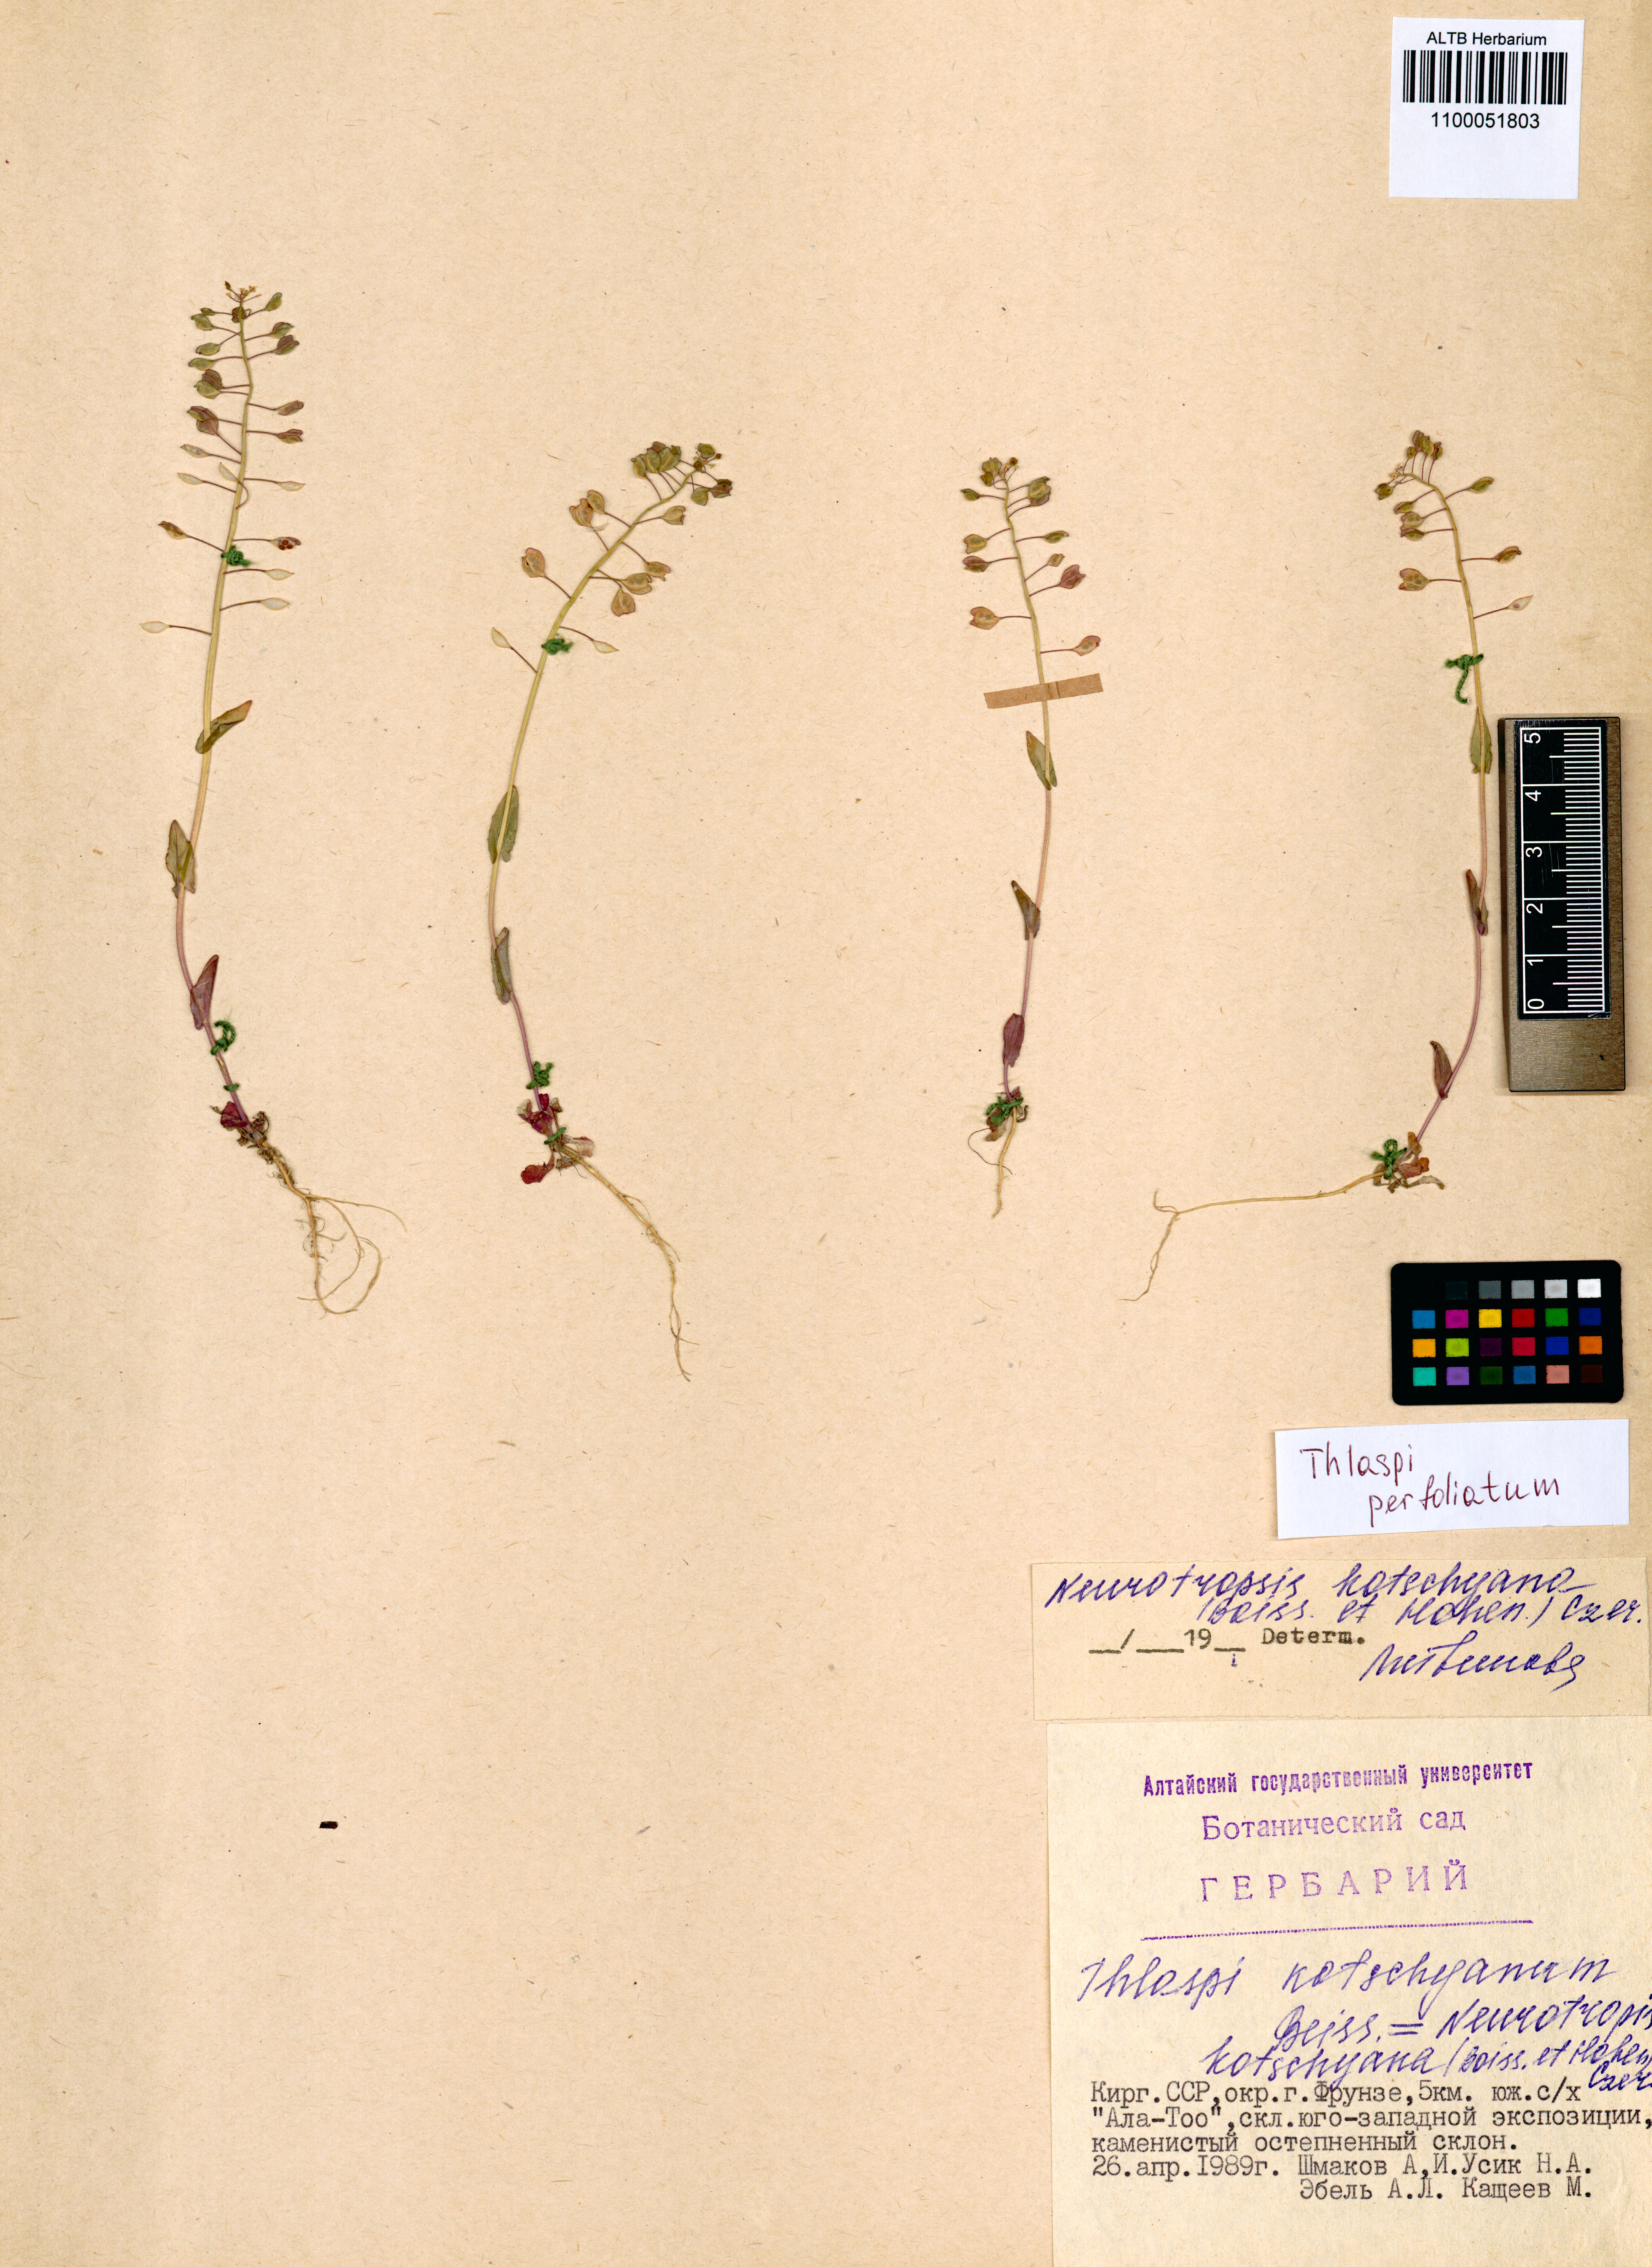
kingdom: Plantae
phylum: Tracheophyta
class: Magnoliopsida
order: Brassicales
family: Brassicaceae
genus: Noccaea
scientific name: Noccaea perfoliata
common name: Perfoliate pennycress
